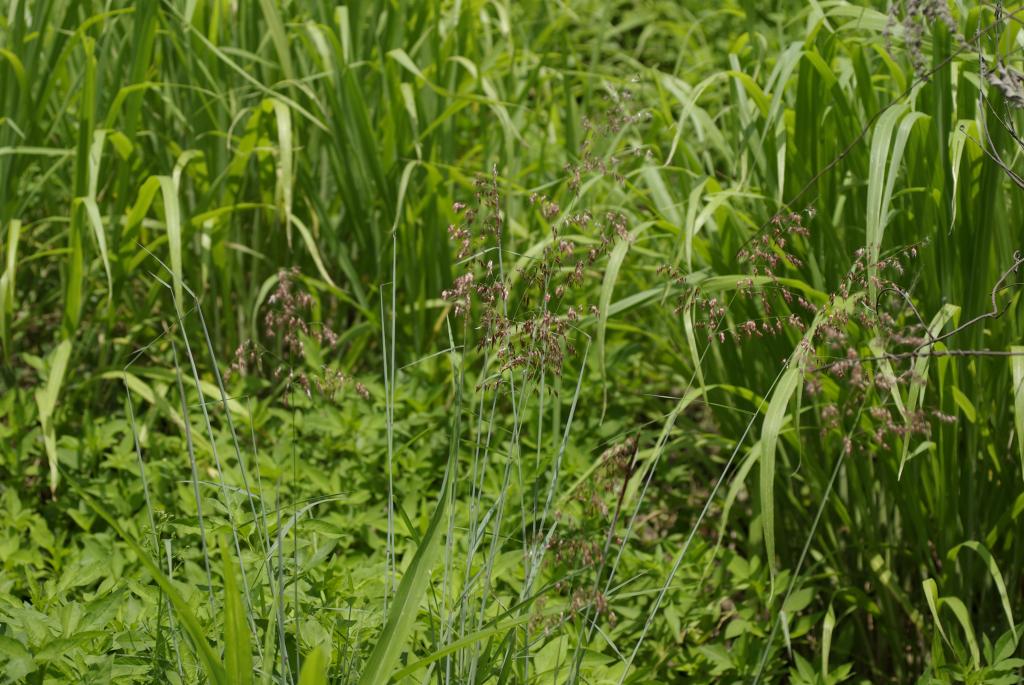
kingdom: Plantae
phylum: Tracheophyta
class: Liliopsida
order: Poales
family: Poaceae
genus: Melinis
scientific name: Melinis repens
